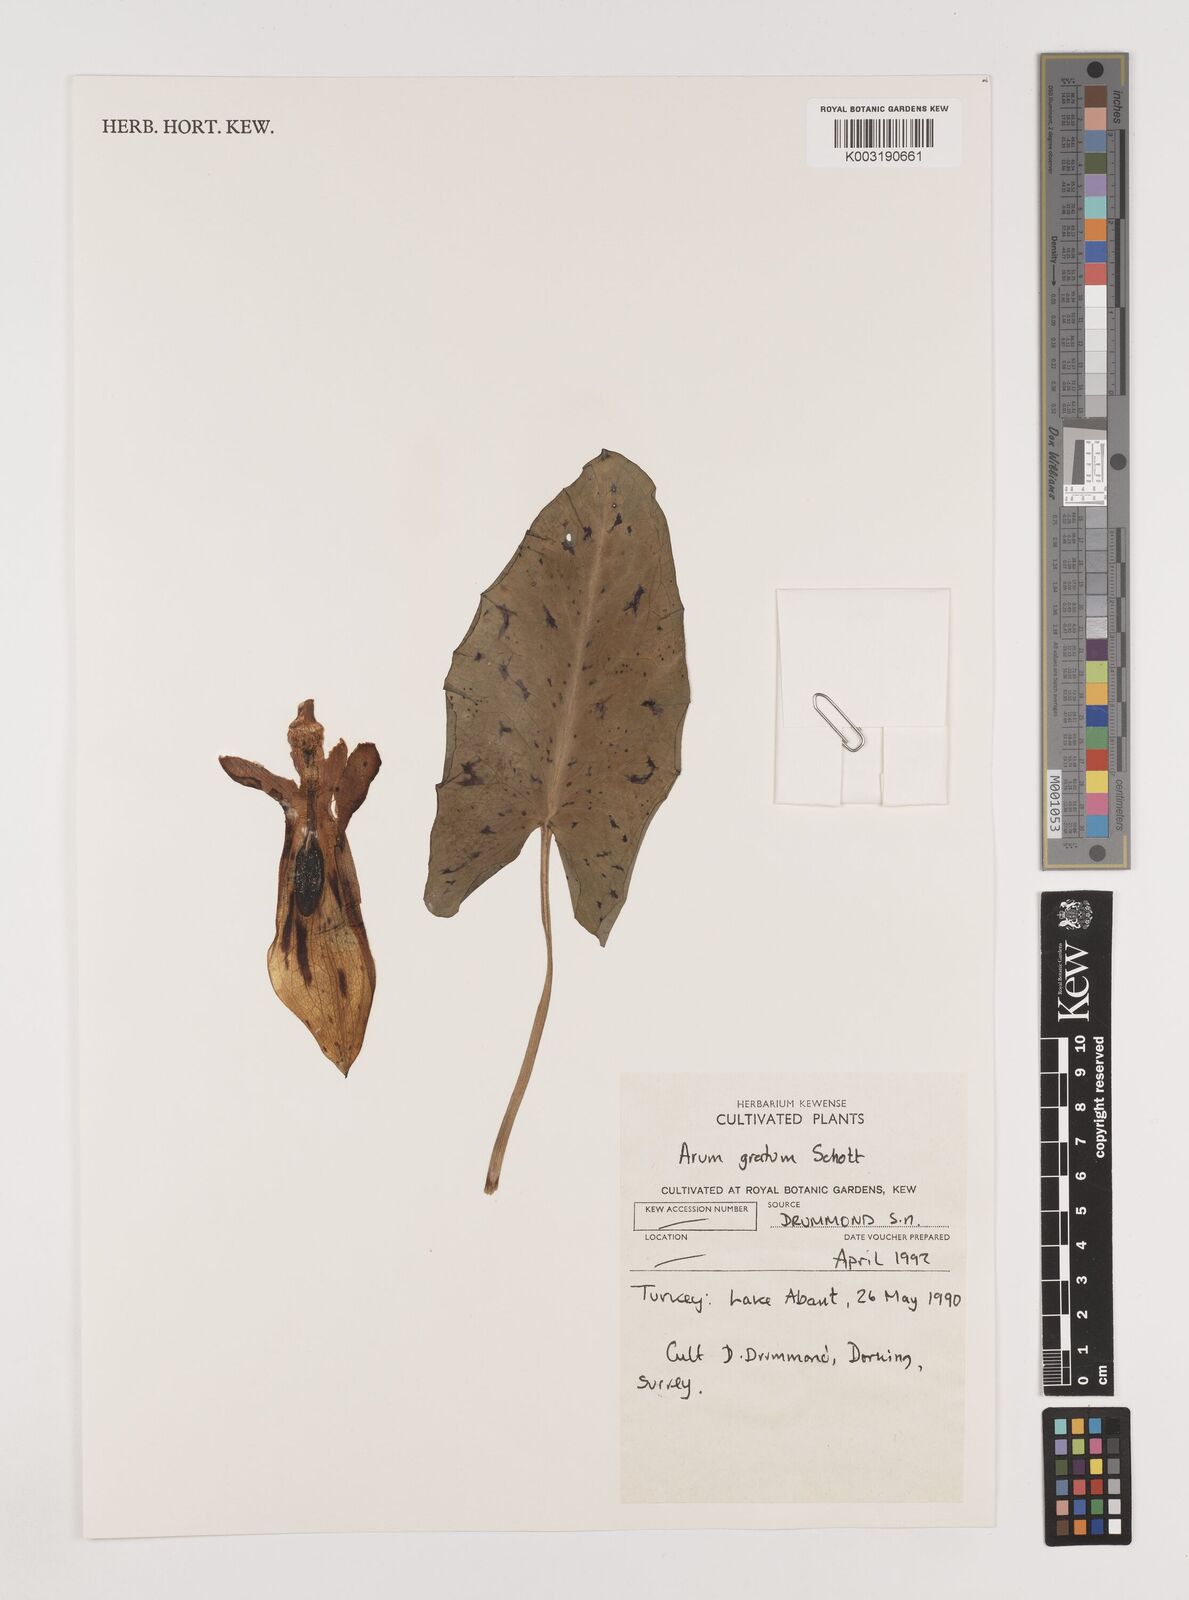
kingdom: Plantae
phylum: Tracheophyta
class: Liliopsida
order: Alismatales
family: Araceae
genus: Arum
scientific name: Arum gratum
